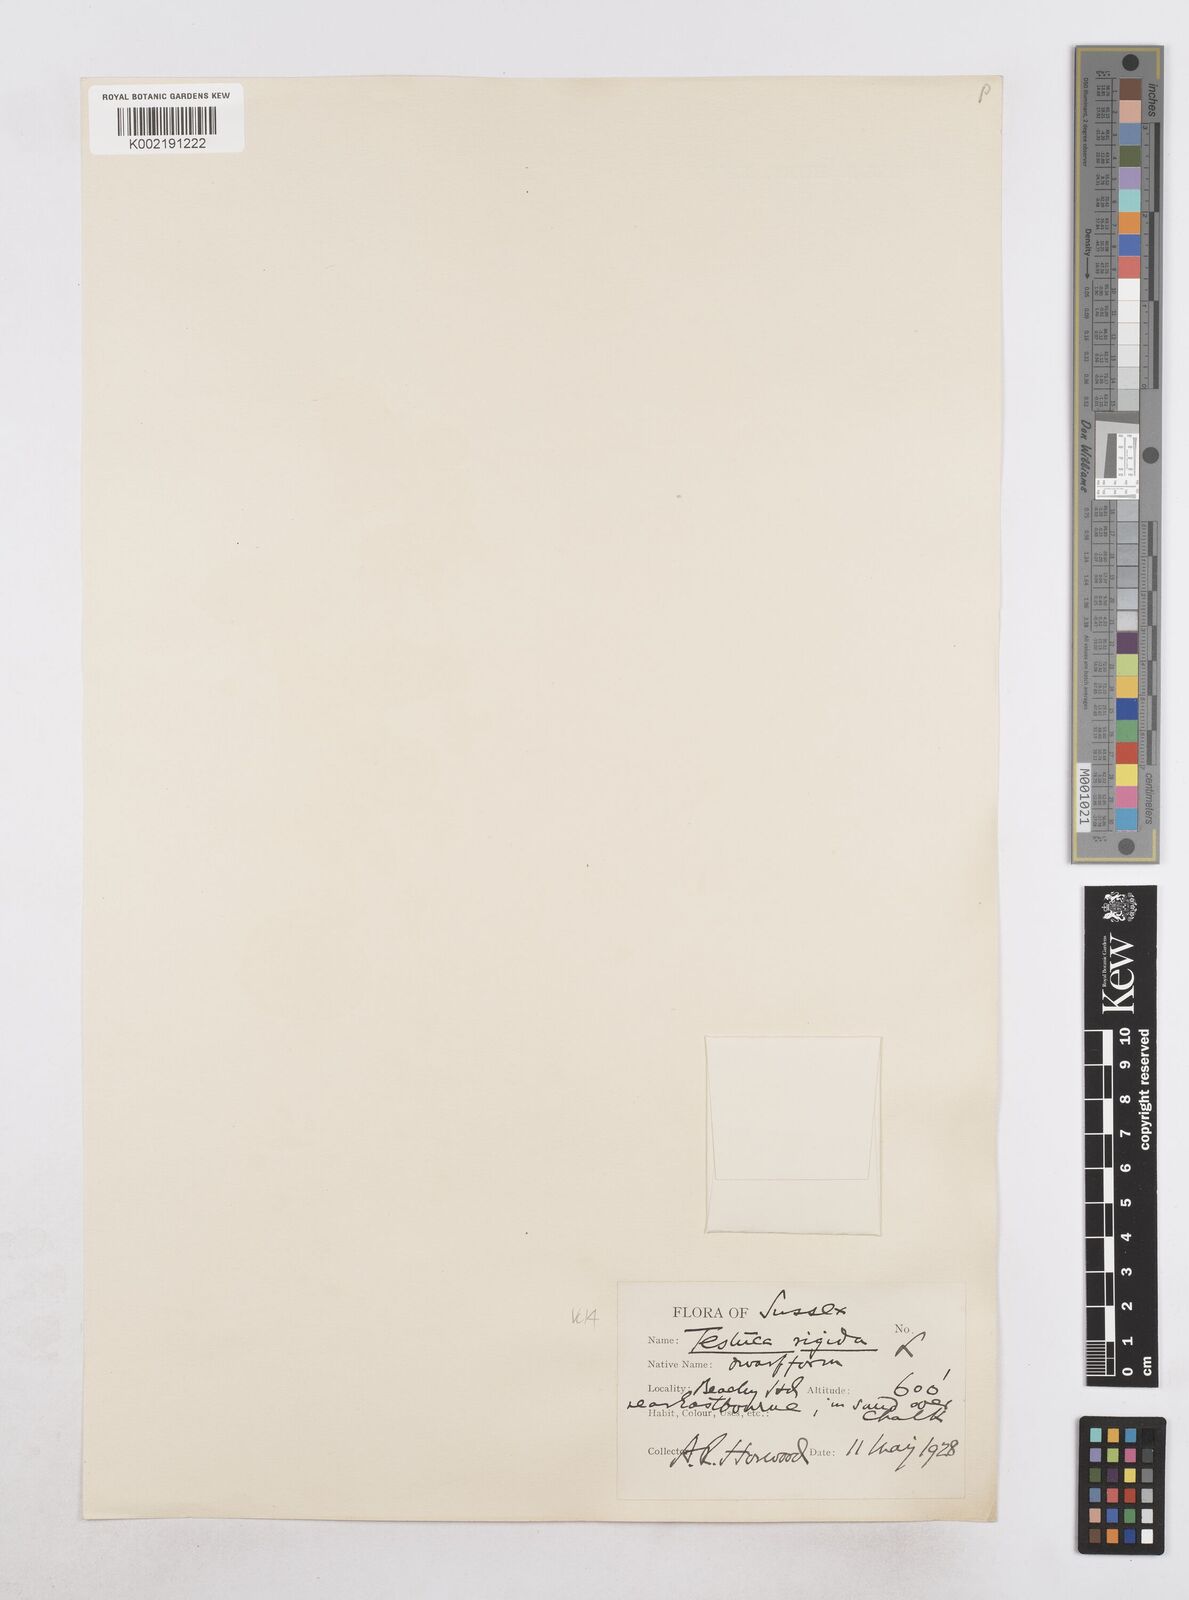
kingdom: Plantae
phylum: Tracheophyta
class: Liliopsida
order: Poales
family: Poaceae
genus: Catapodium
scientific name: Catapodium rigidum
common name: Fern-grass
